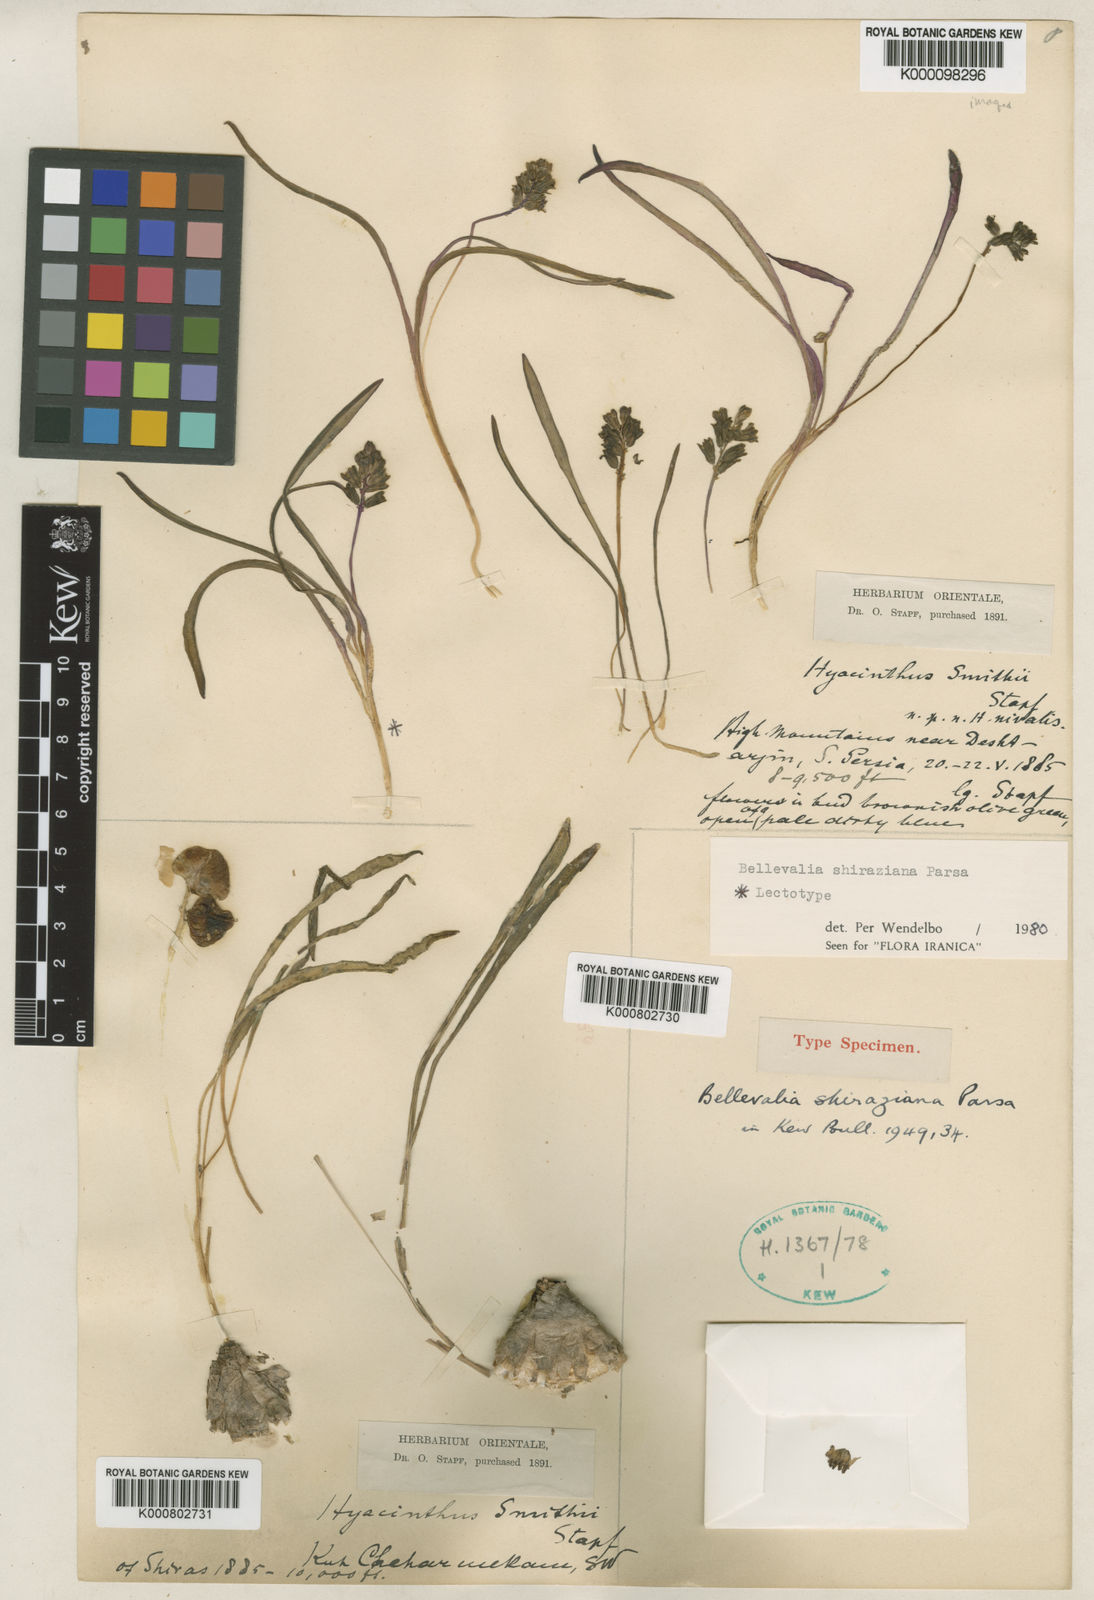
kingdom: Plantae
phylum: Tracheophyta
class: Liliopsida
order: Asparagales
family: Asparagaceae
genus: Bellevalia
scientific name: Bellevalia shiraziana
